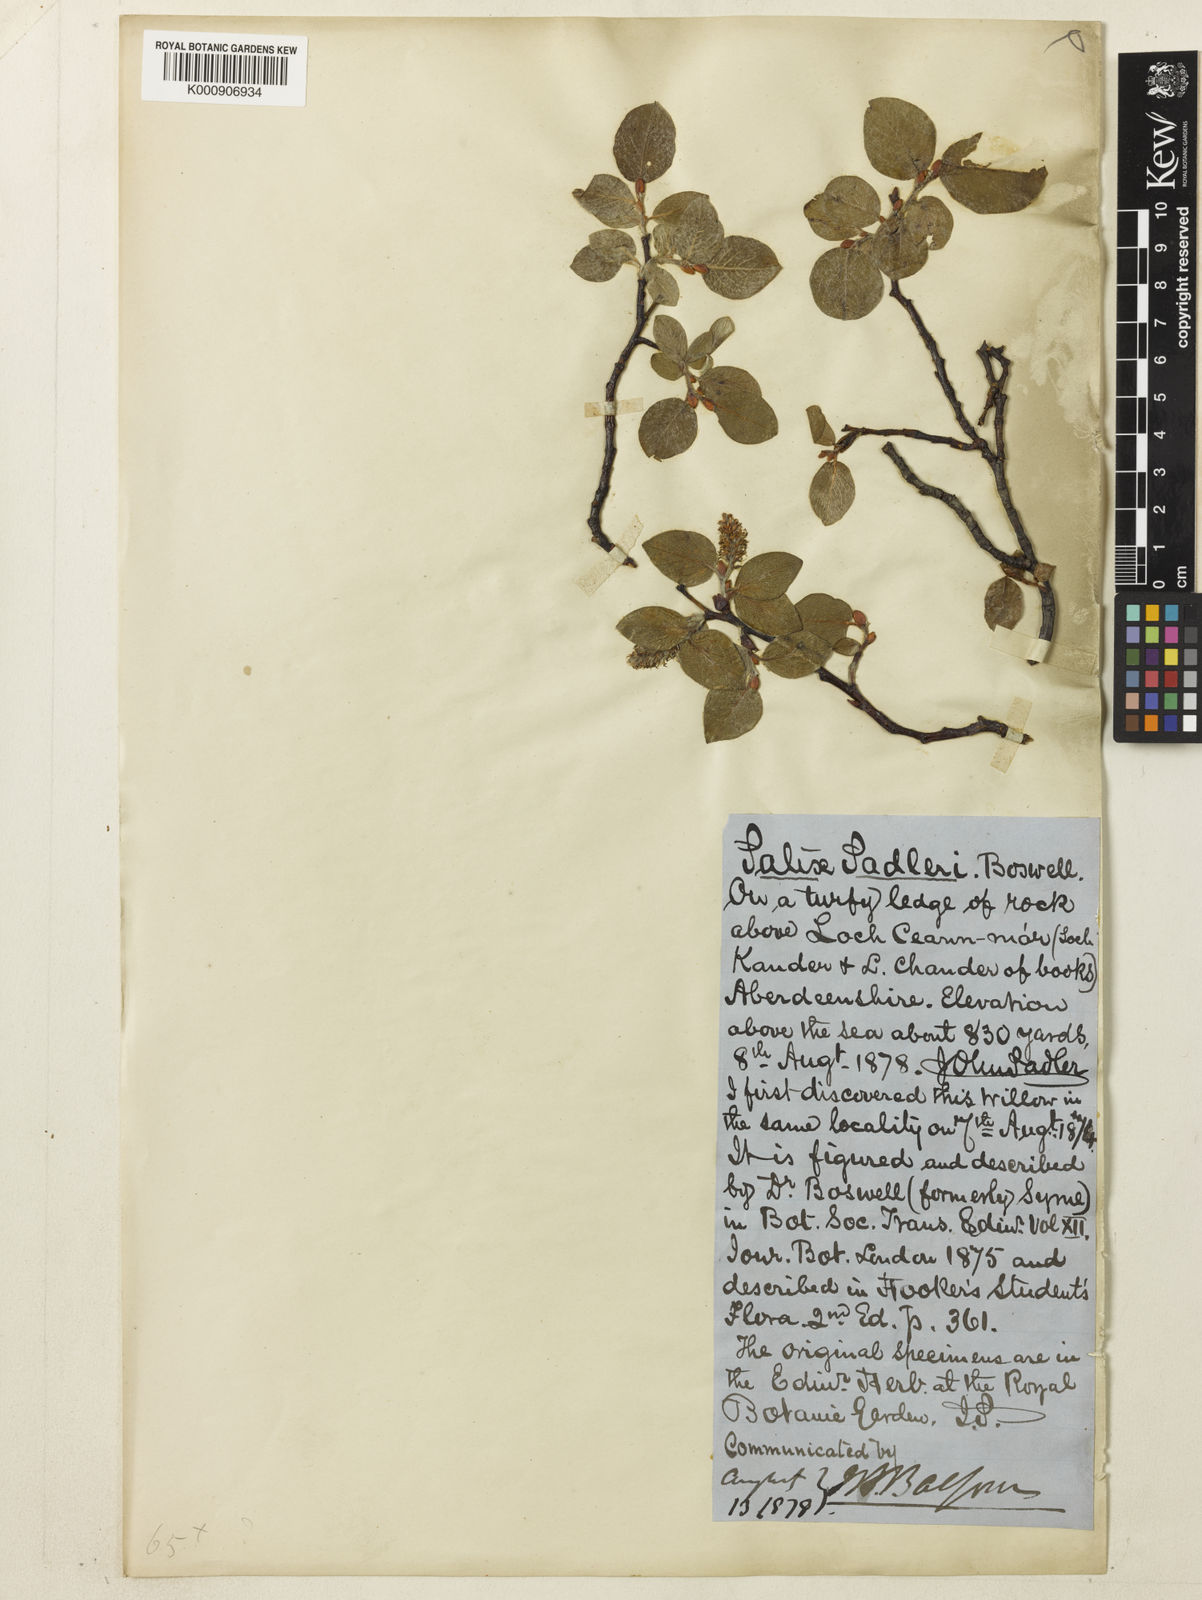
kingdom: Plantae
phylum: Tracheophyta
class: Magnoliopsida
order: Malpighiales
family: Salicaceae
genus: Salix
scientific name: Salix
